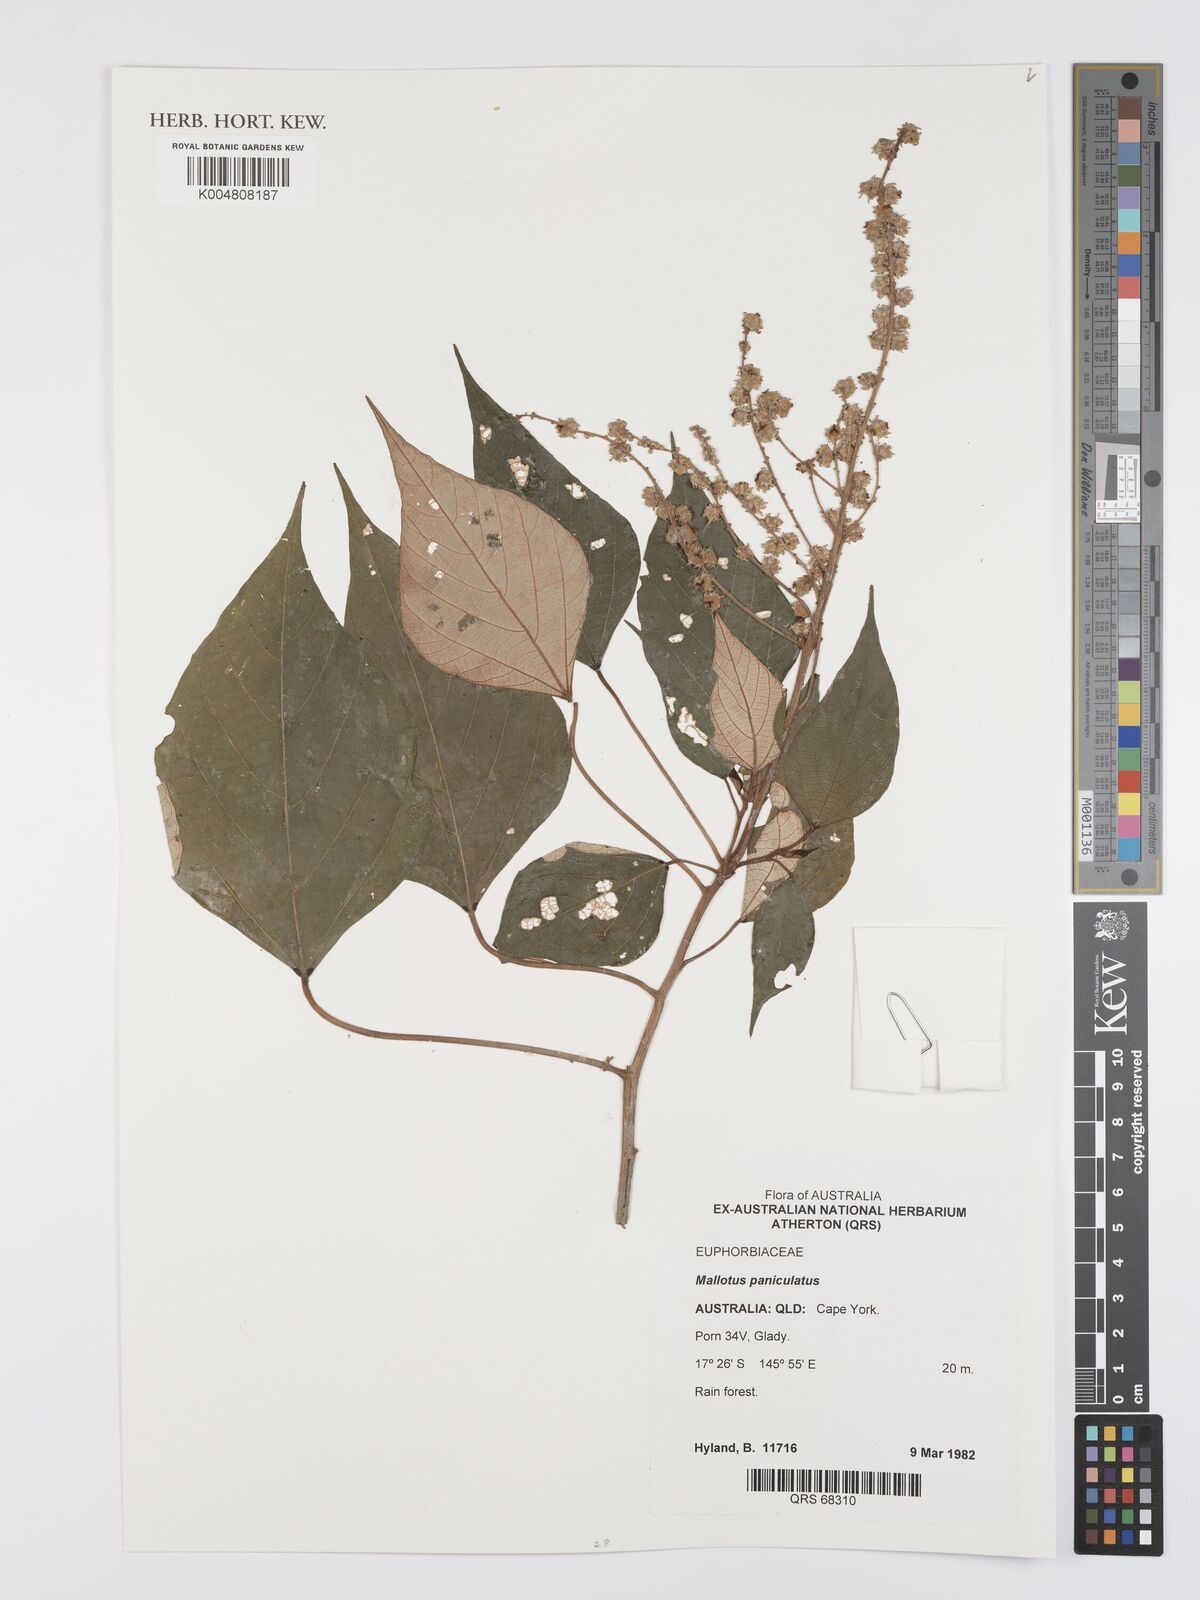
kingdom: Plantae
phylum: Tracheophyta
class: Magnoliopsida
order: Malpighiales
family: Euphorbiaceae
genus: Mallotus
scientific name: Mallotus paniculatus
